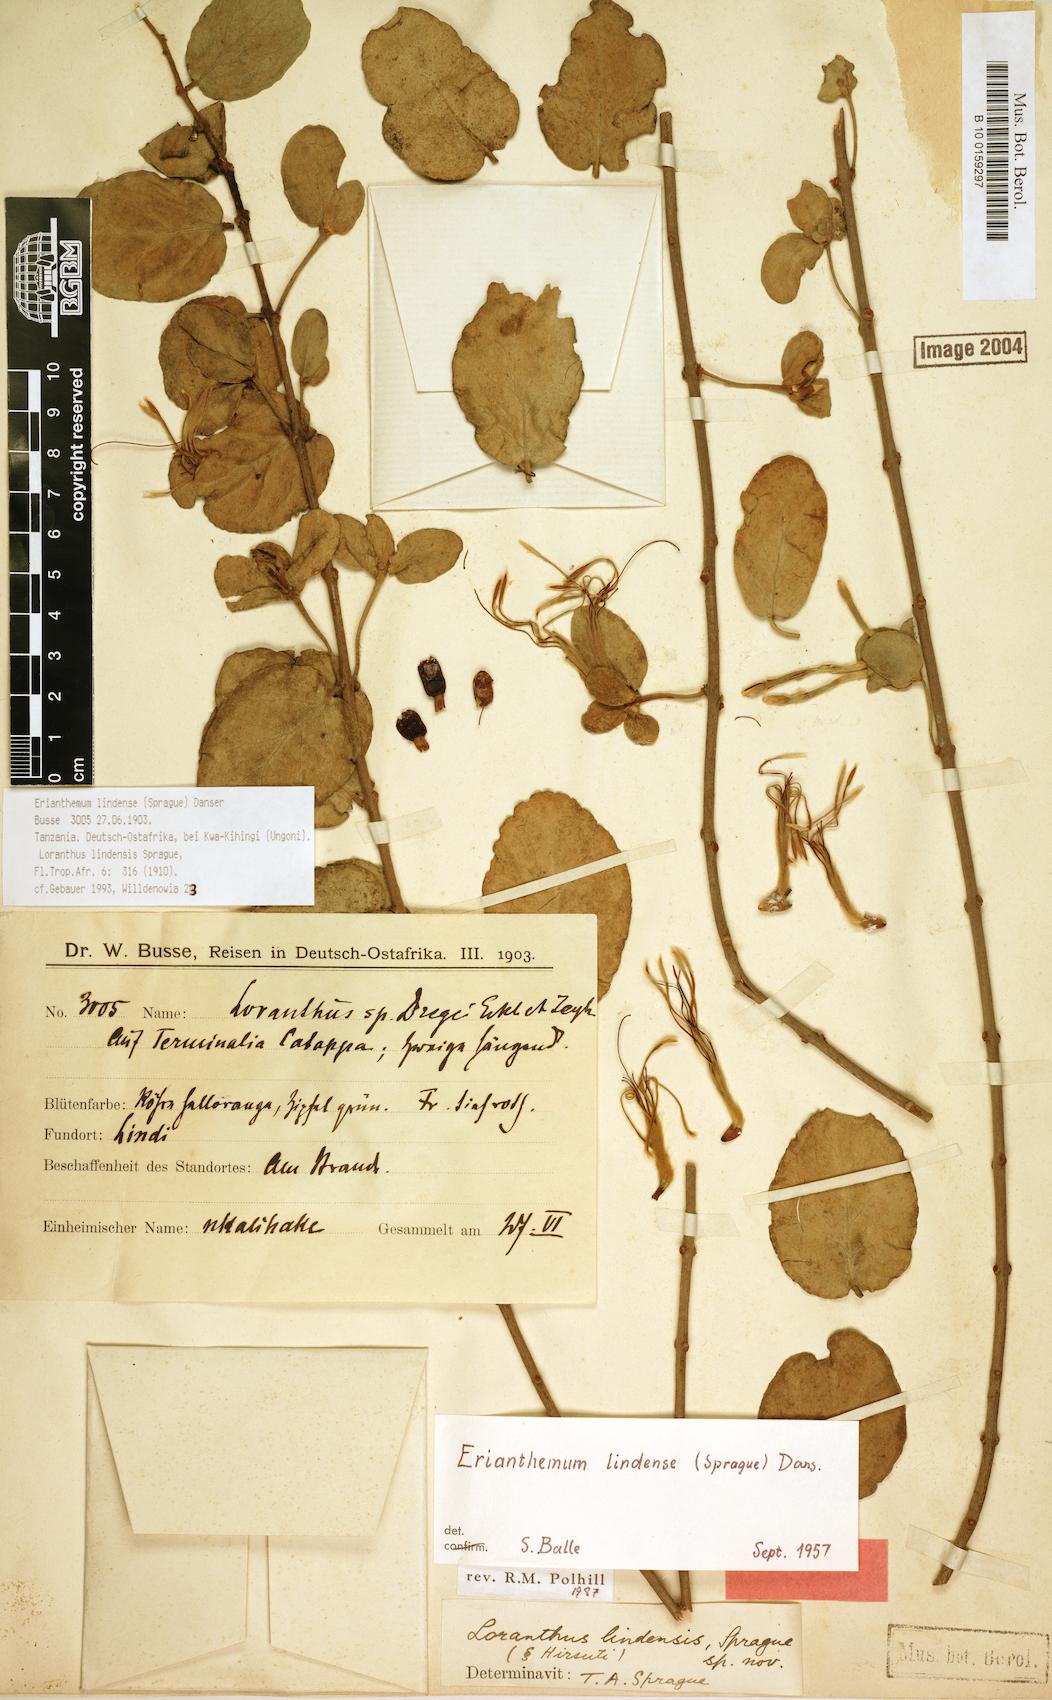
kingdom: Plantae
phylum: Tracheophyta
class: Magnoliopsida
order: Santalales
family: Loranthaceae
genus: Erianthemum
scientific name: Erianthemum lindense
